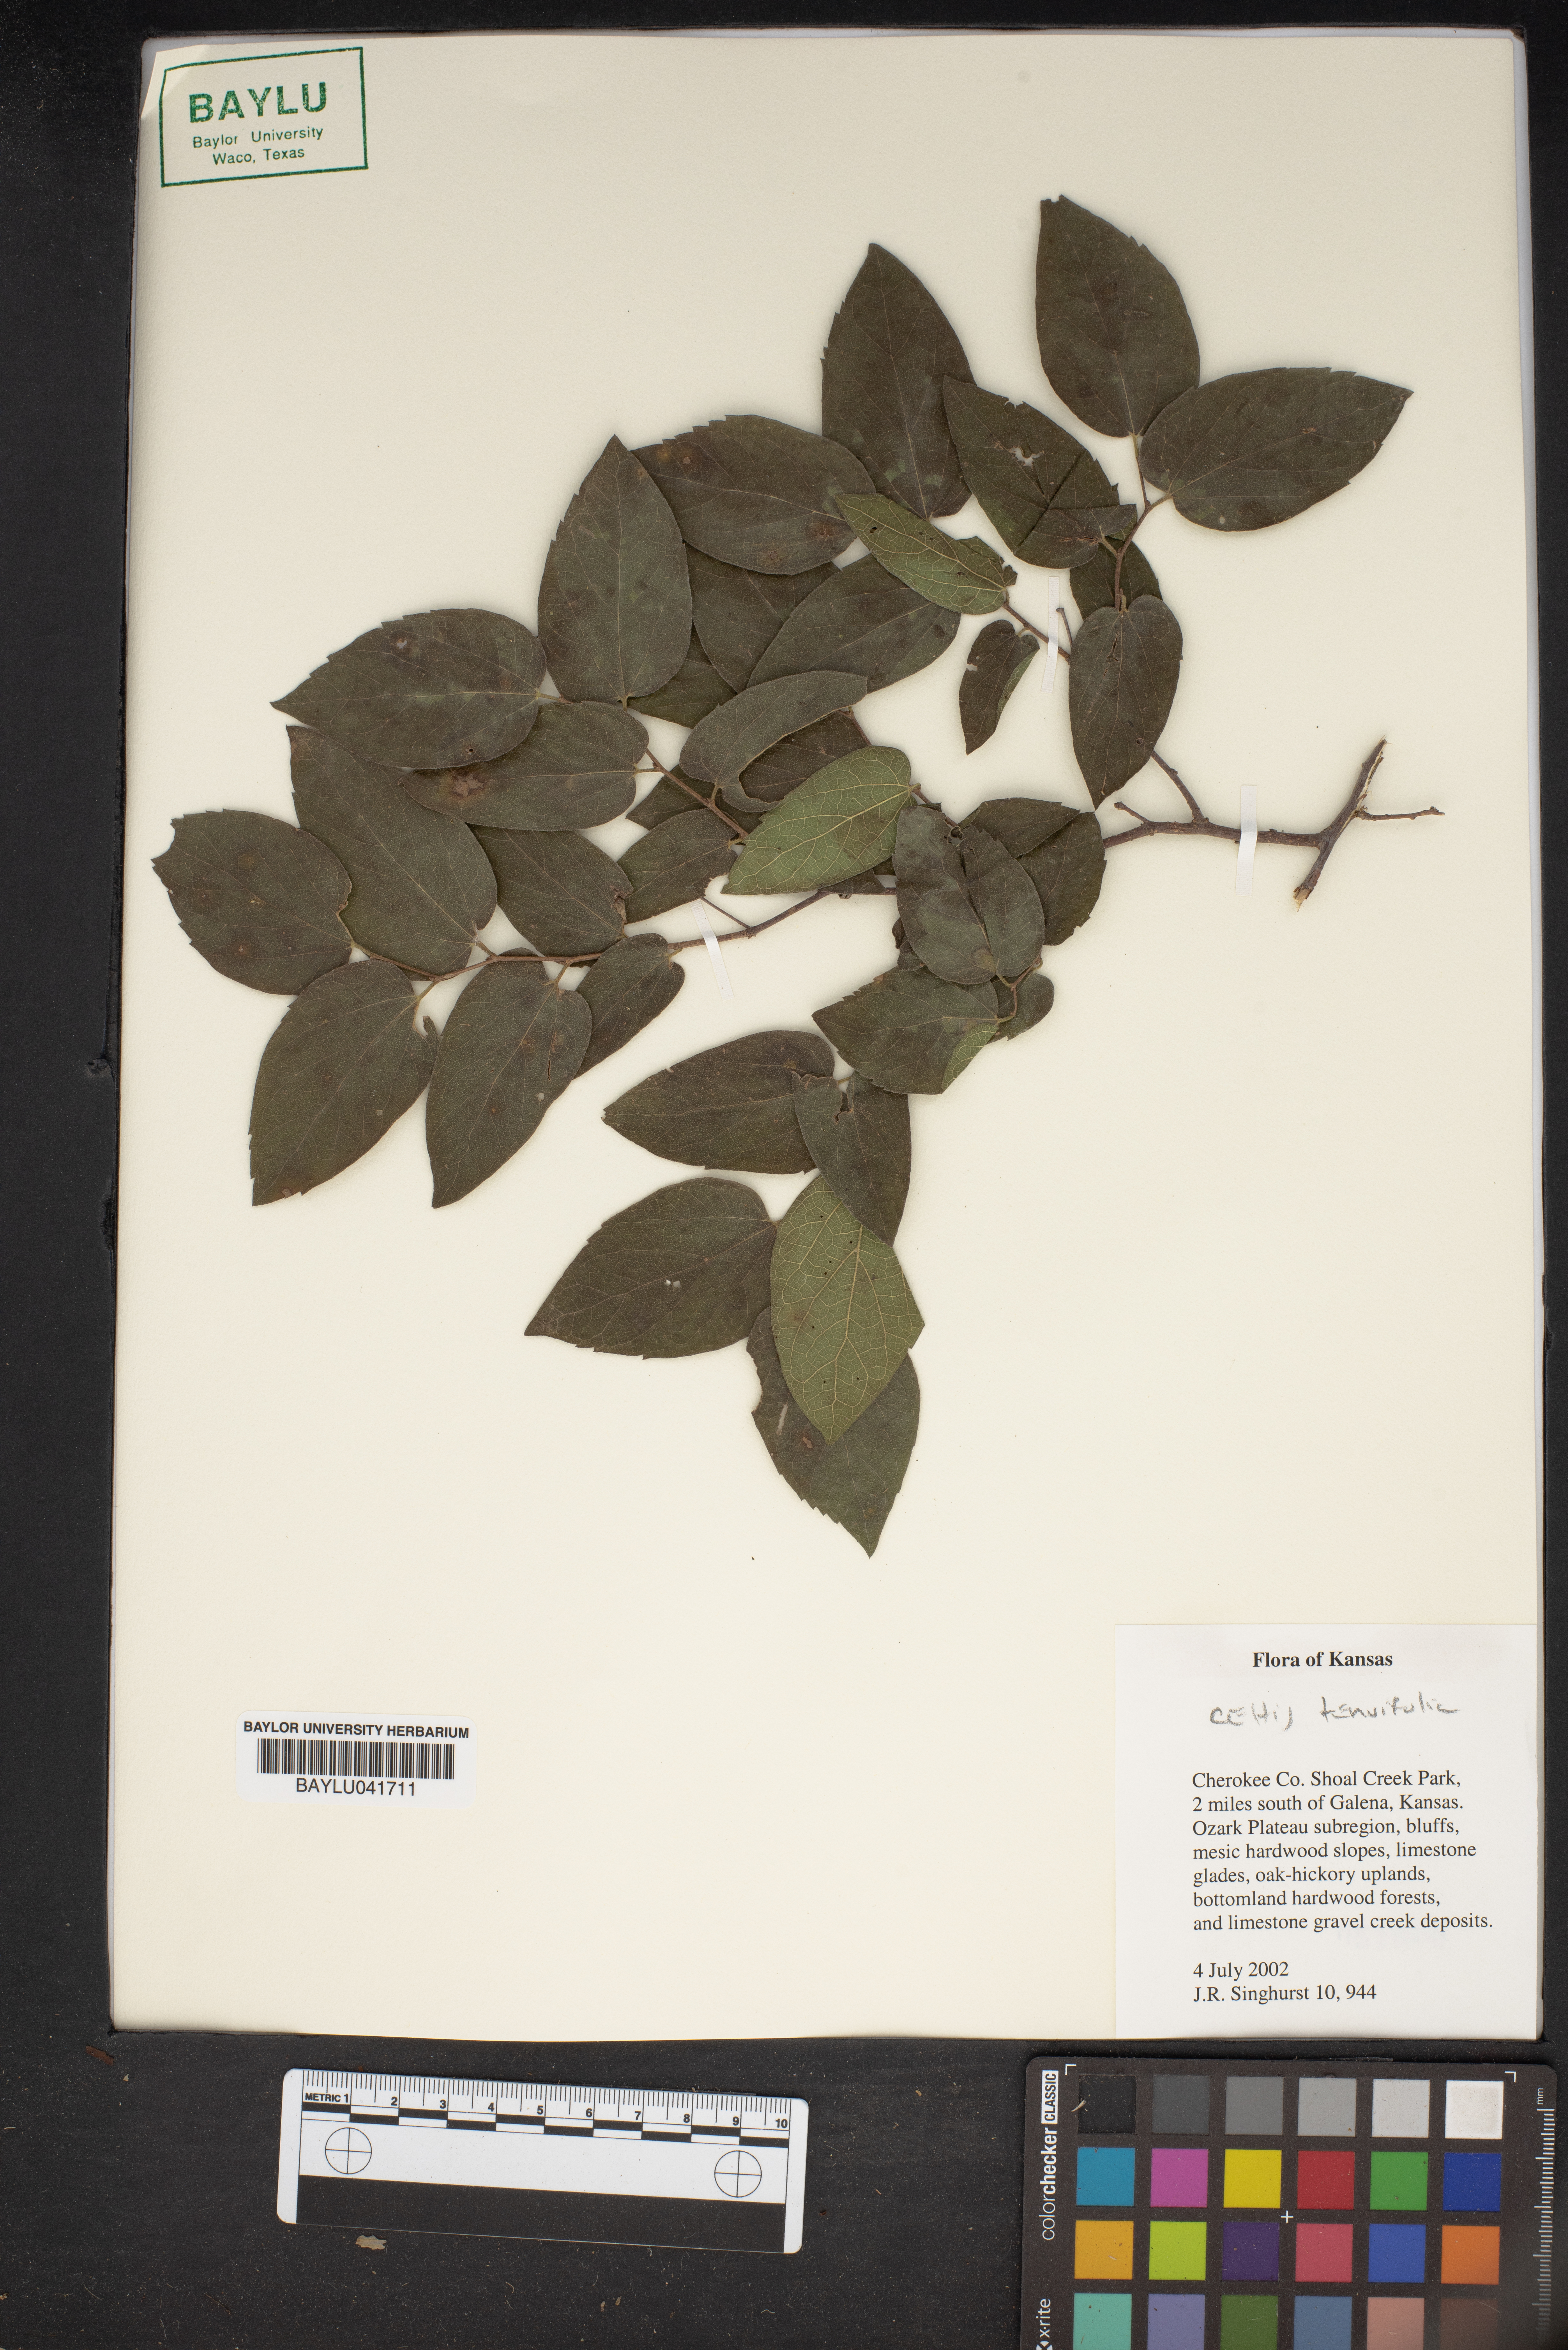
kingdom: Plantae
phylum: Tracheophyta
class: Magnoliopsida
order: Rosales
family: Cannabaceae
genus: Celtis
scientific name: Celtis tenuifolia
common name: Georgia hackberry
